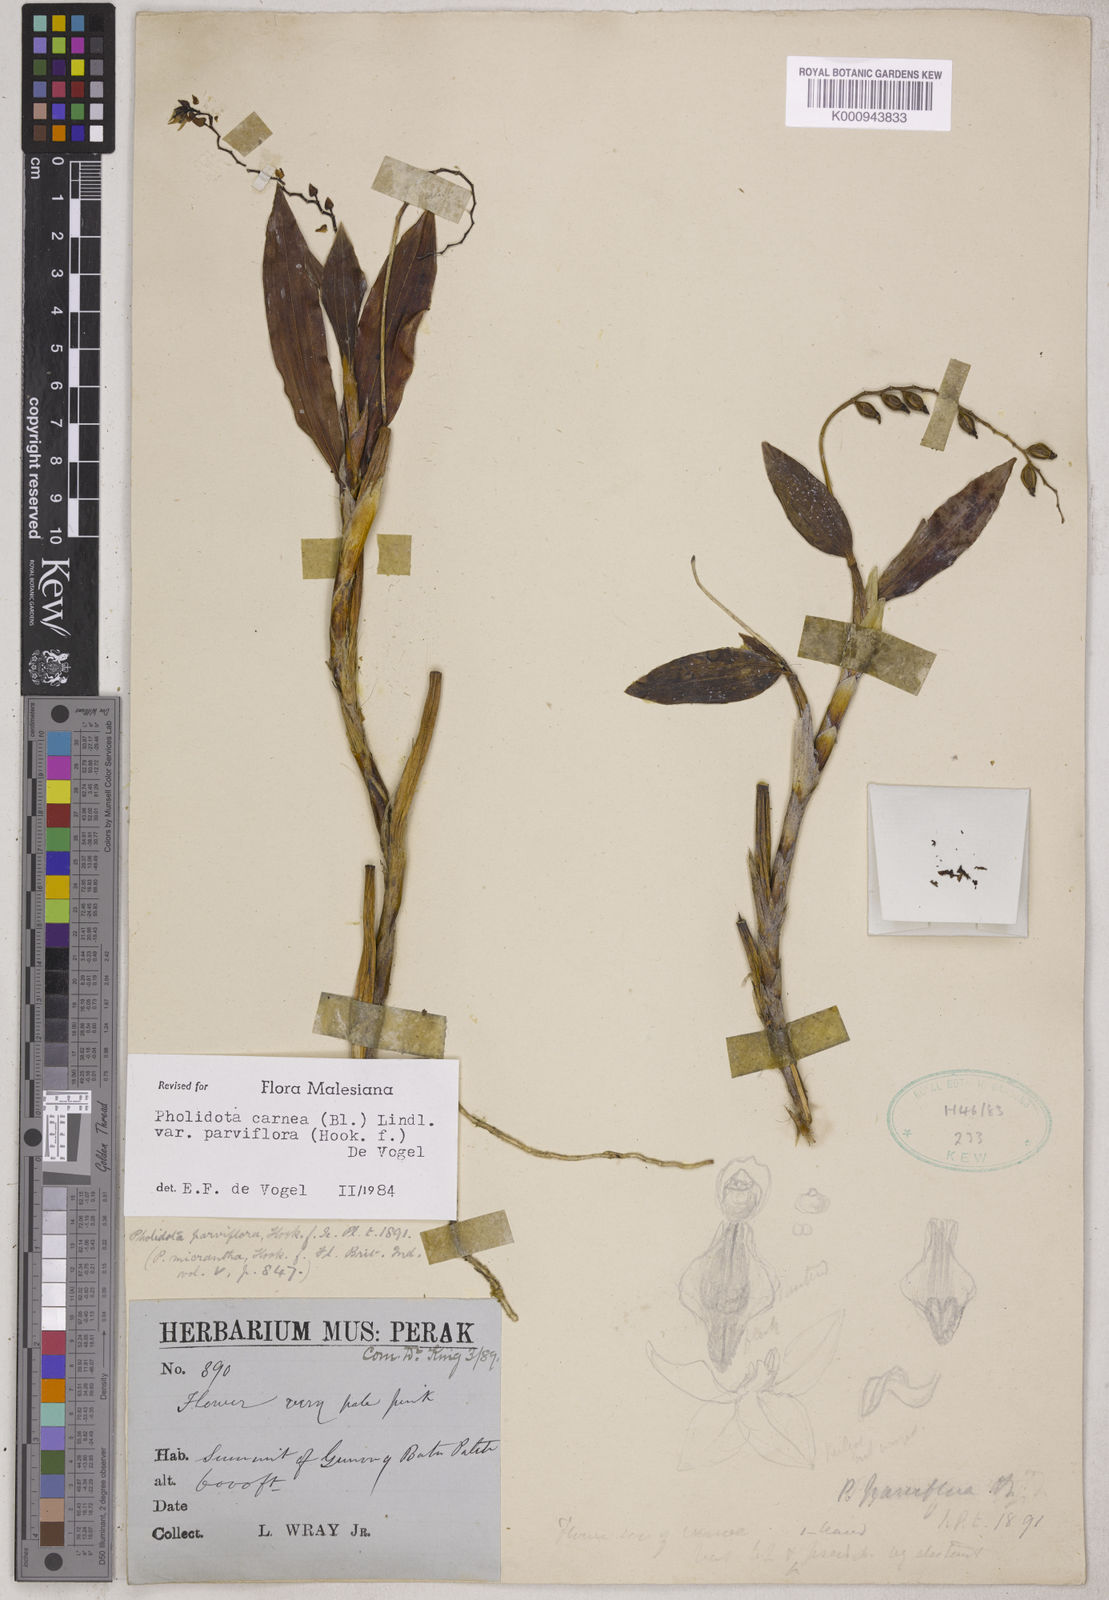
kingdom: Plantae
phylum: Tracheophyta
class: Liliopsida
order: Asparagales
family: Orchidaceae
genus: Coelogyne
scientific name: Coelogyne carnea
